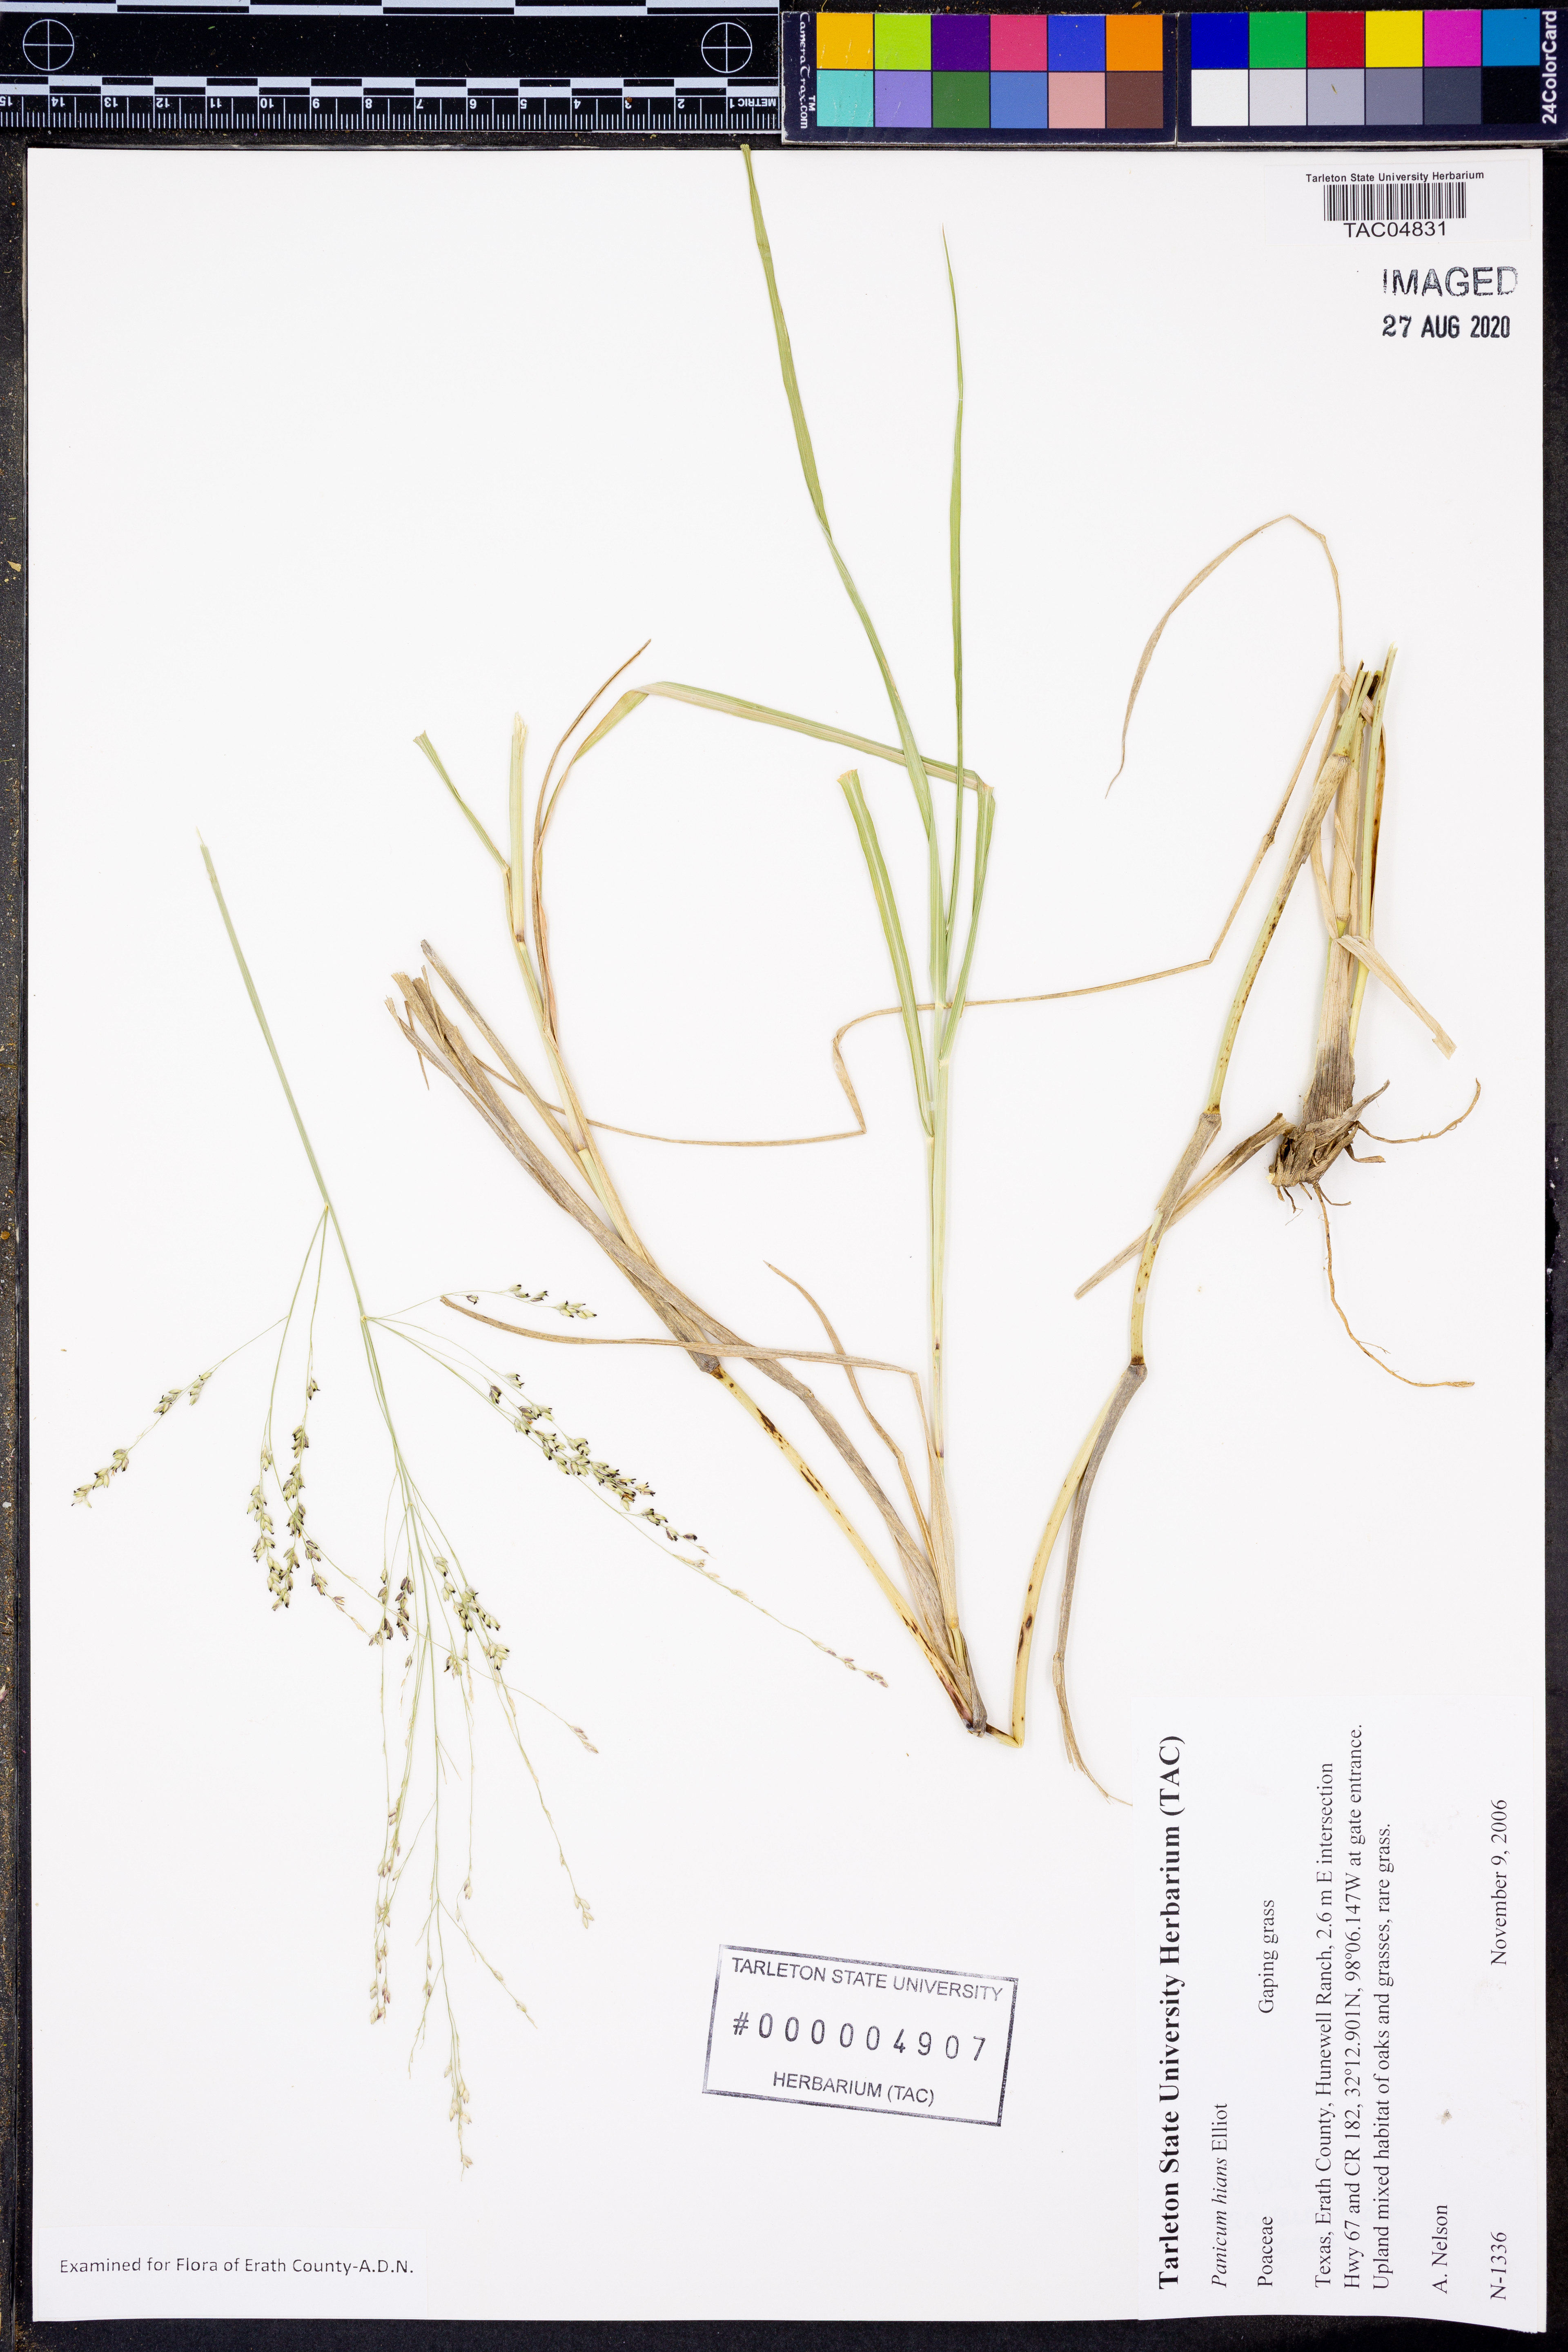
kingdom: Plantae
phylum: Tracheophyta
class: Liliopsida
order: Poales
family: Poaceae
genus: Coleataenia
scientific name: Coleataenia stenodes
